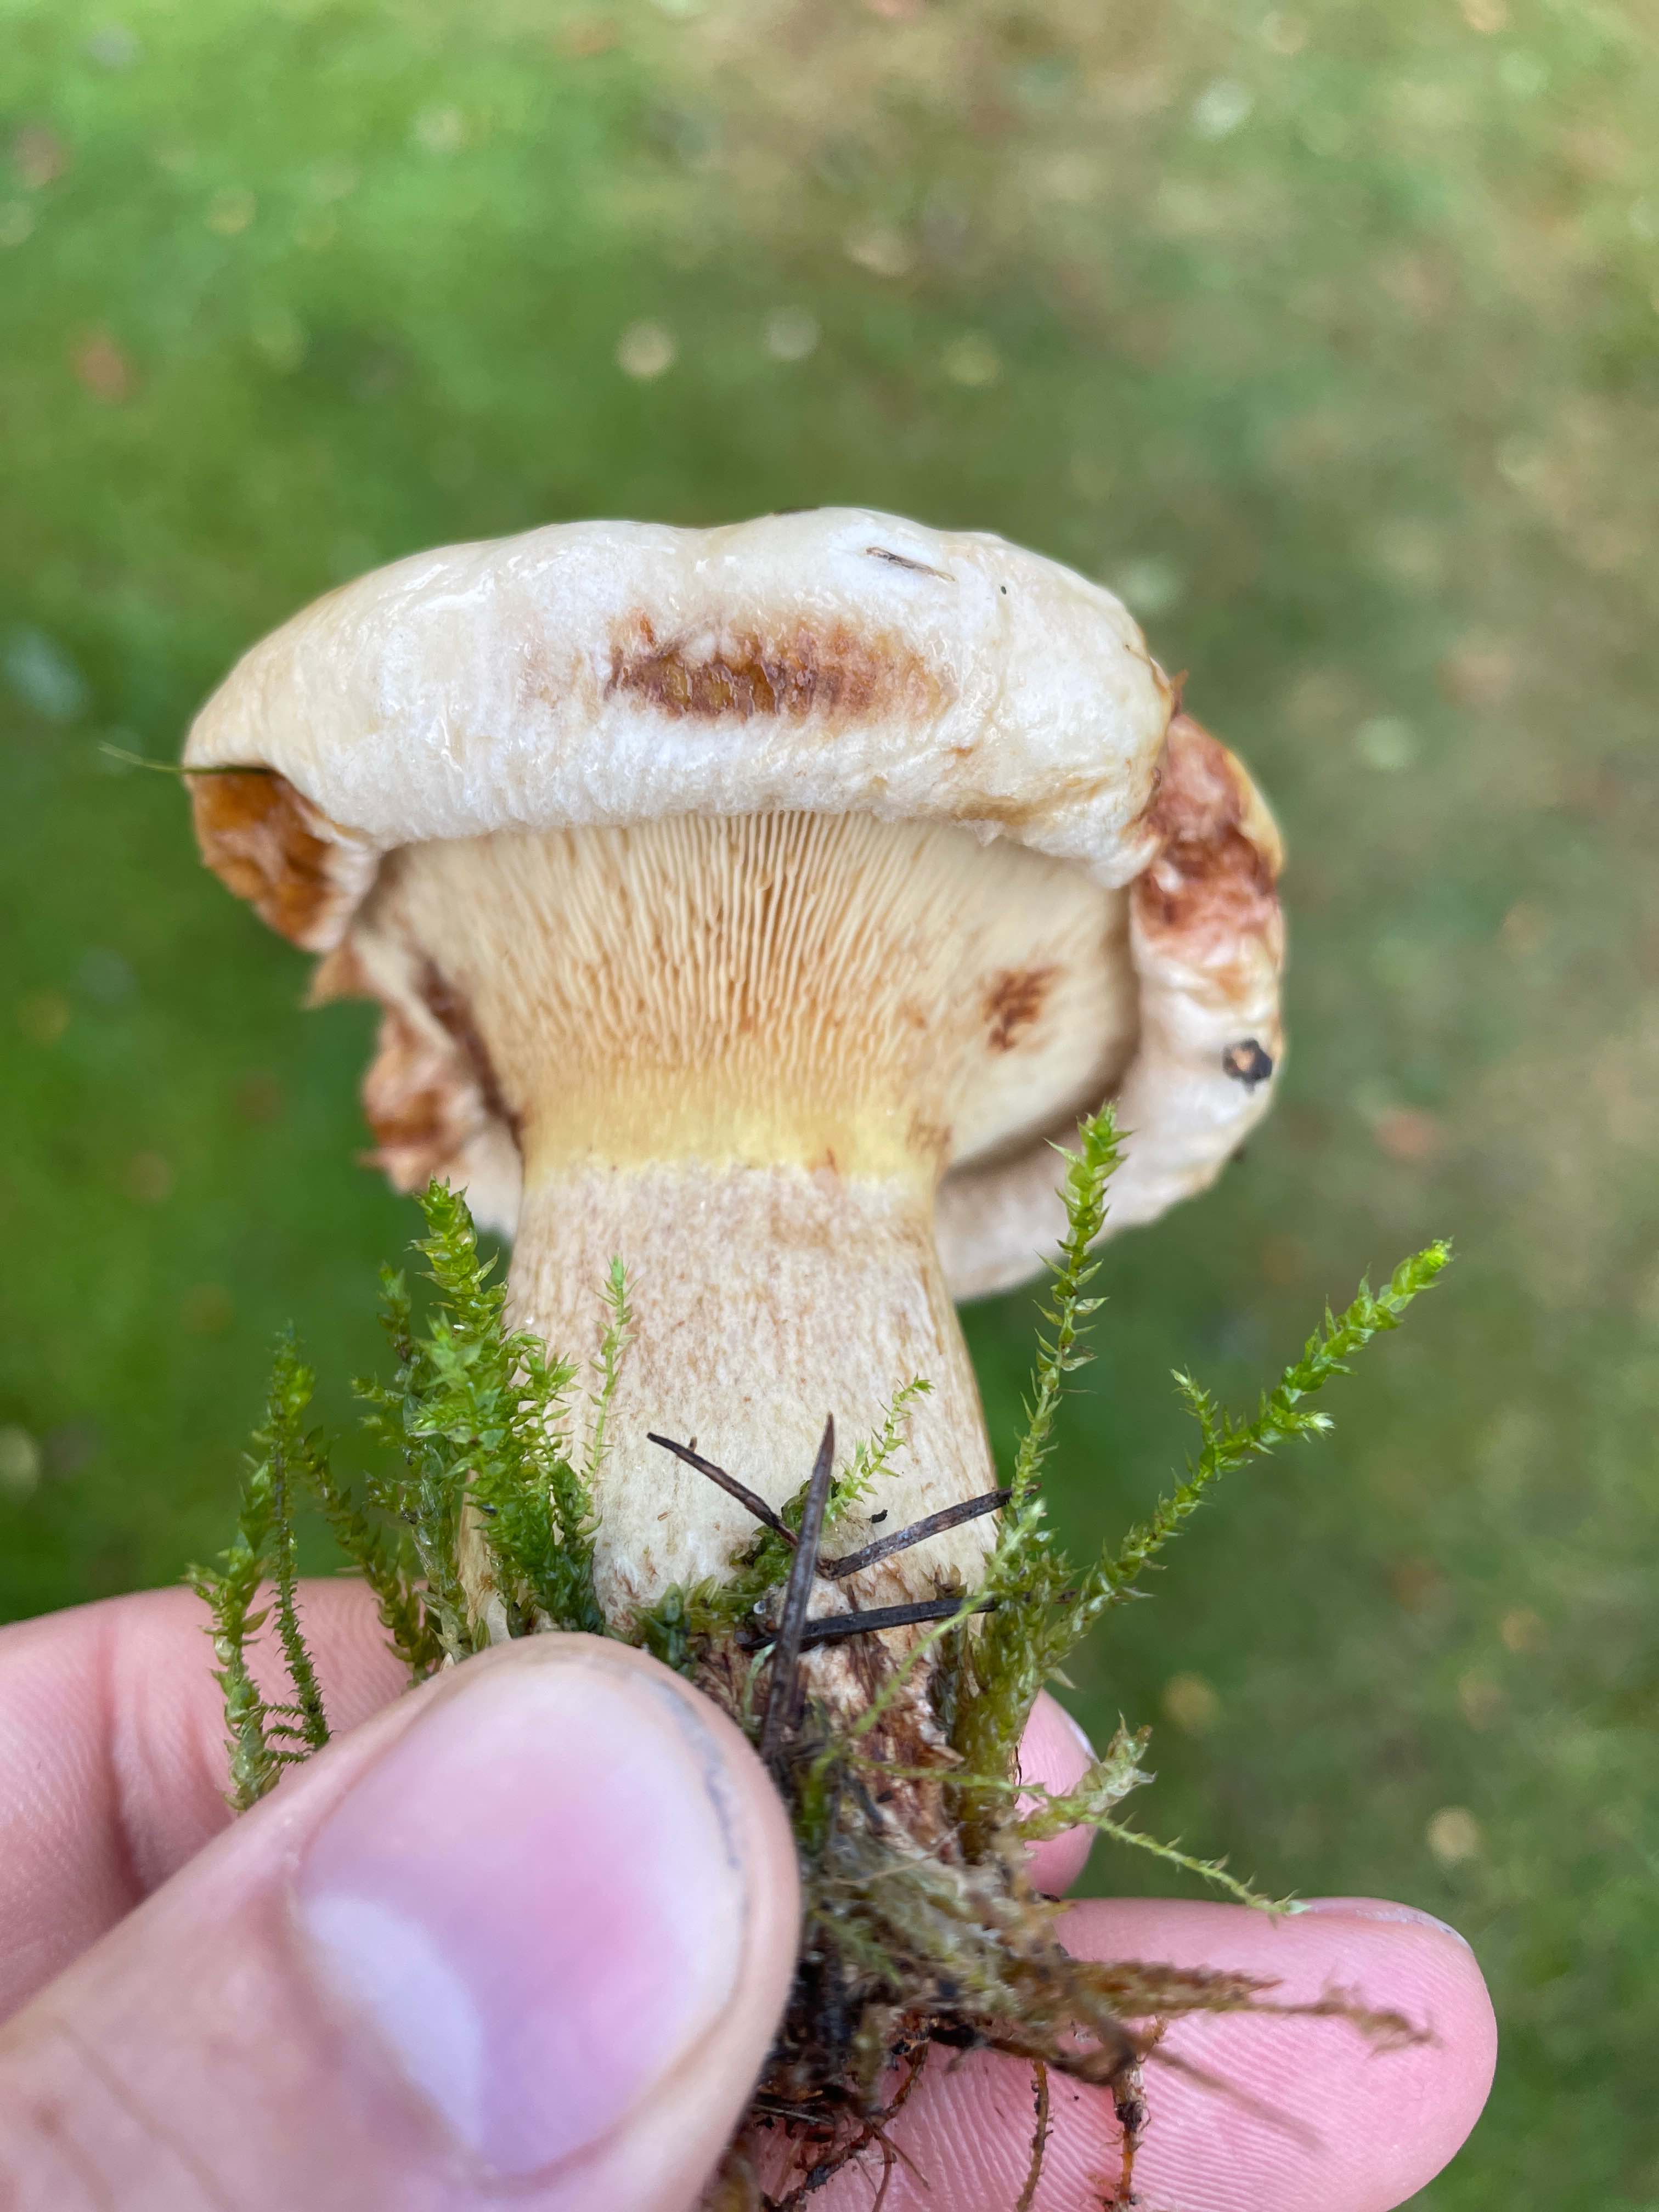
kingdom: Fungi
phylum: Basidiomycota
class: Agaricomycetes
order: Boletales
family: Paxillaceae
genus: Paxillus
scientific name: Paxillus obscurisporus
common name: mahognisporet netbladhat
